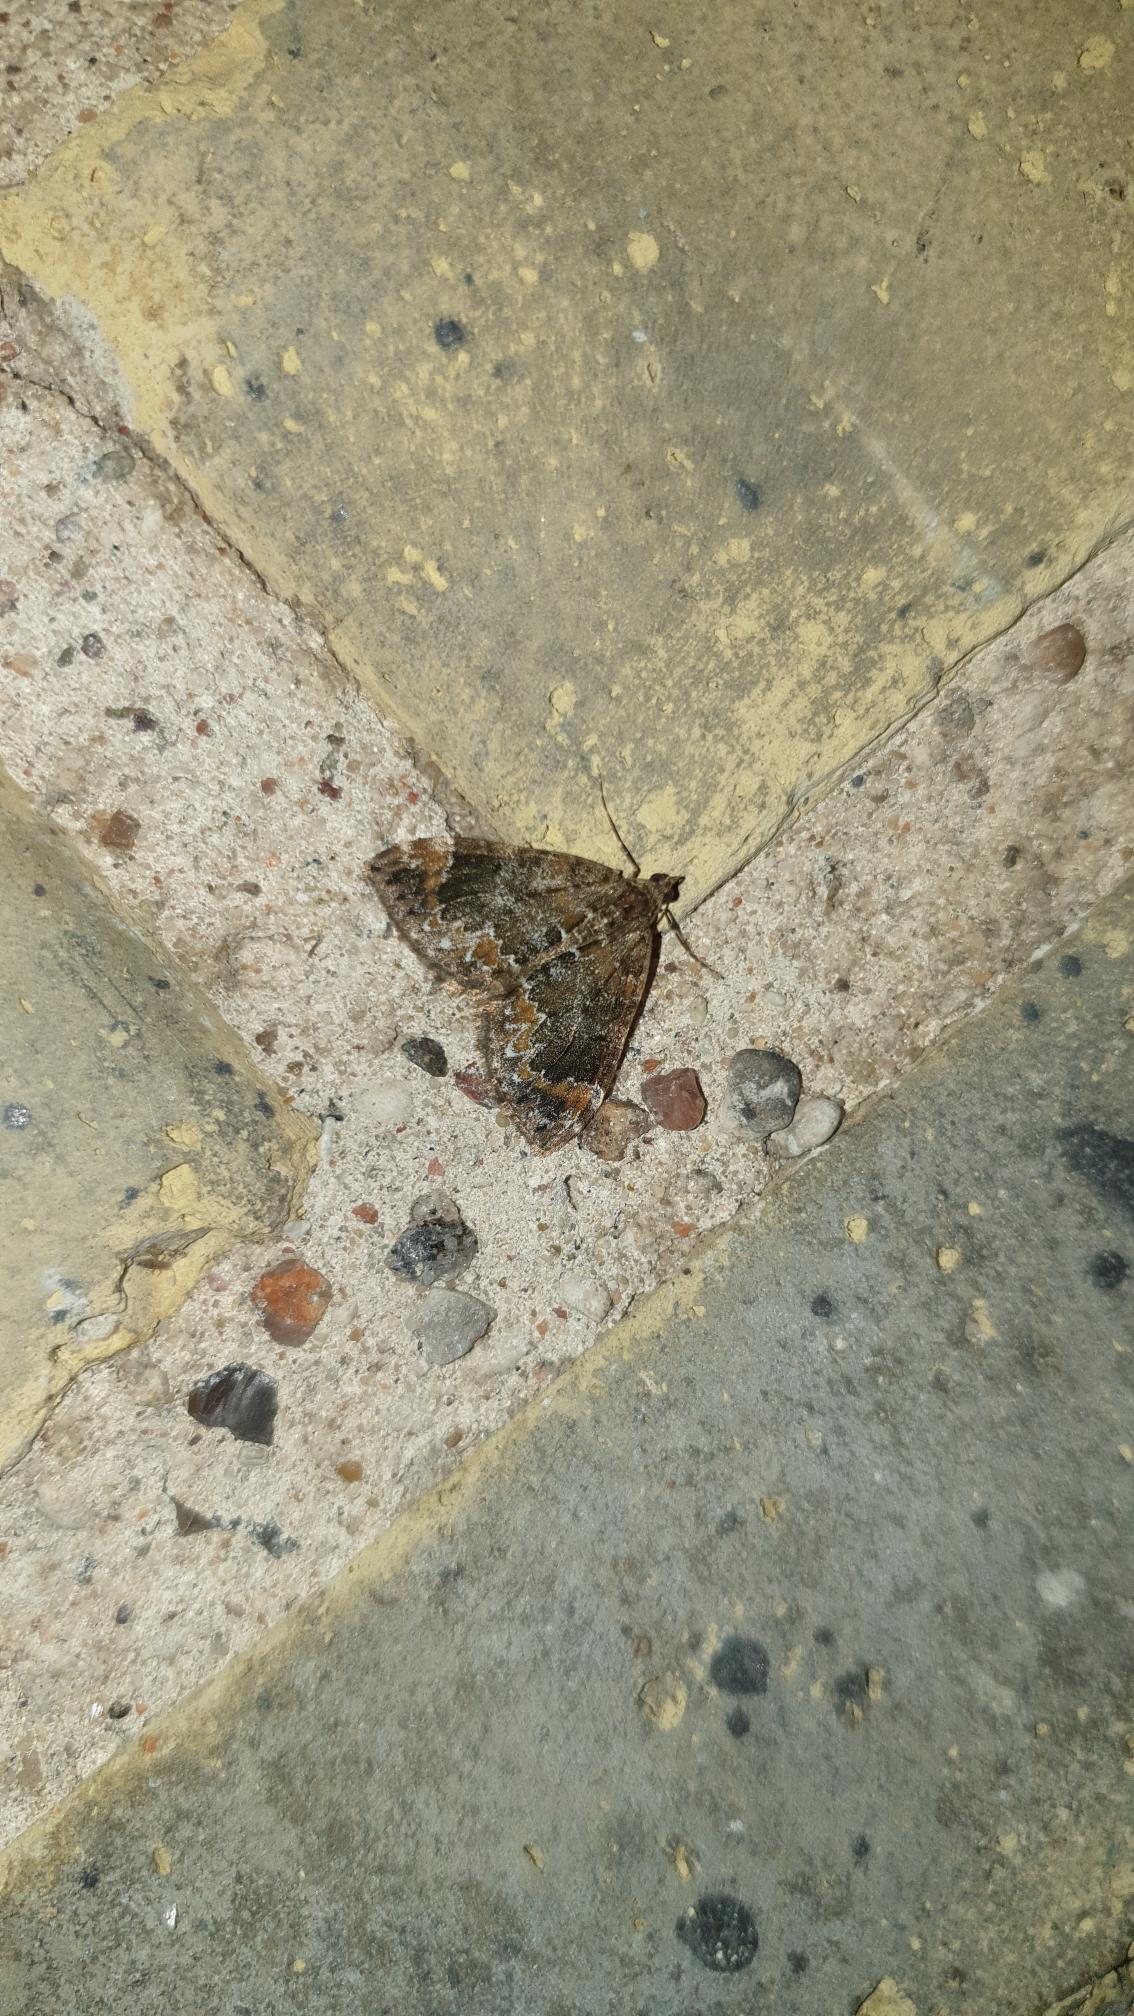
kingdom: Animalia
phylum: Arthropoda
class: Insecta
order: Lepidoptera
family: Geometridae
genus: Dysstroma
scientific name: Dysstroma truncata
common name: Jordbær-bladmåler
